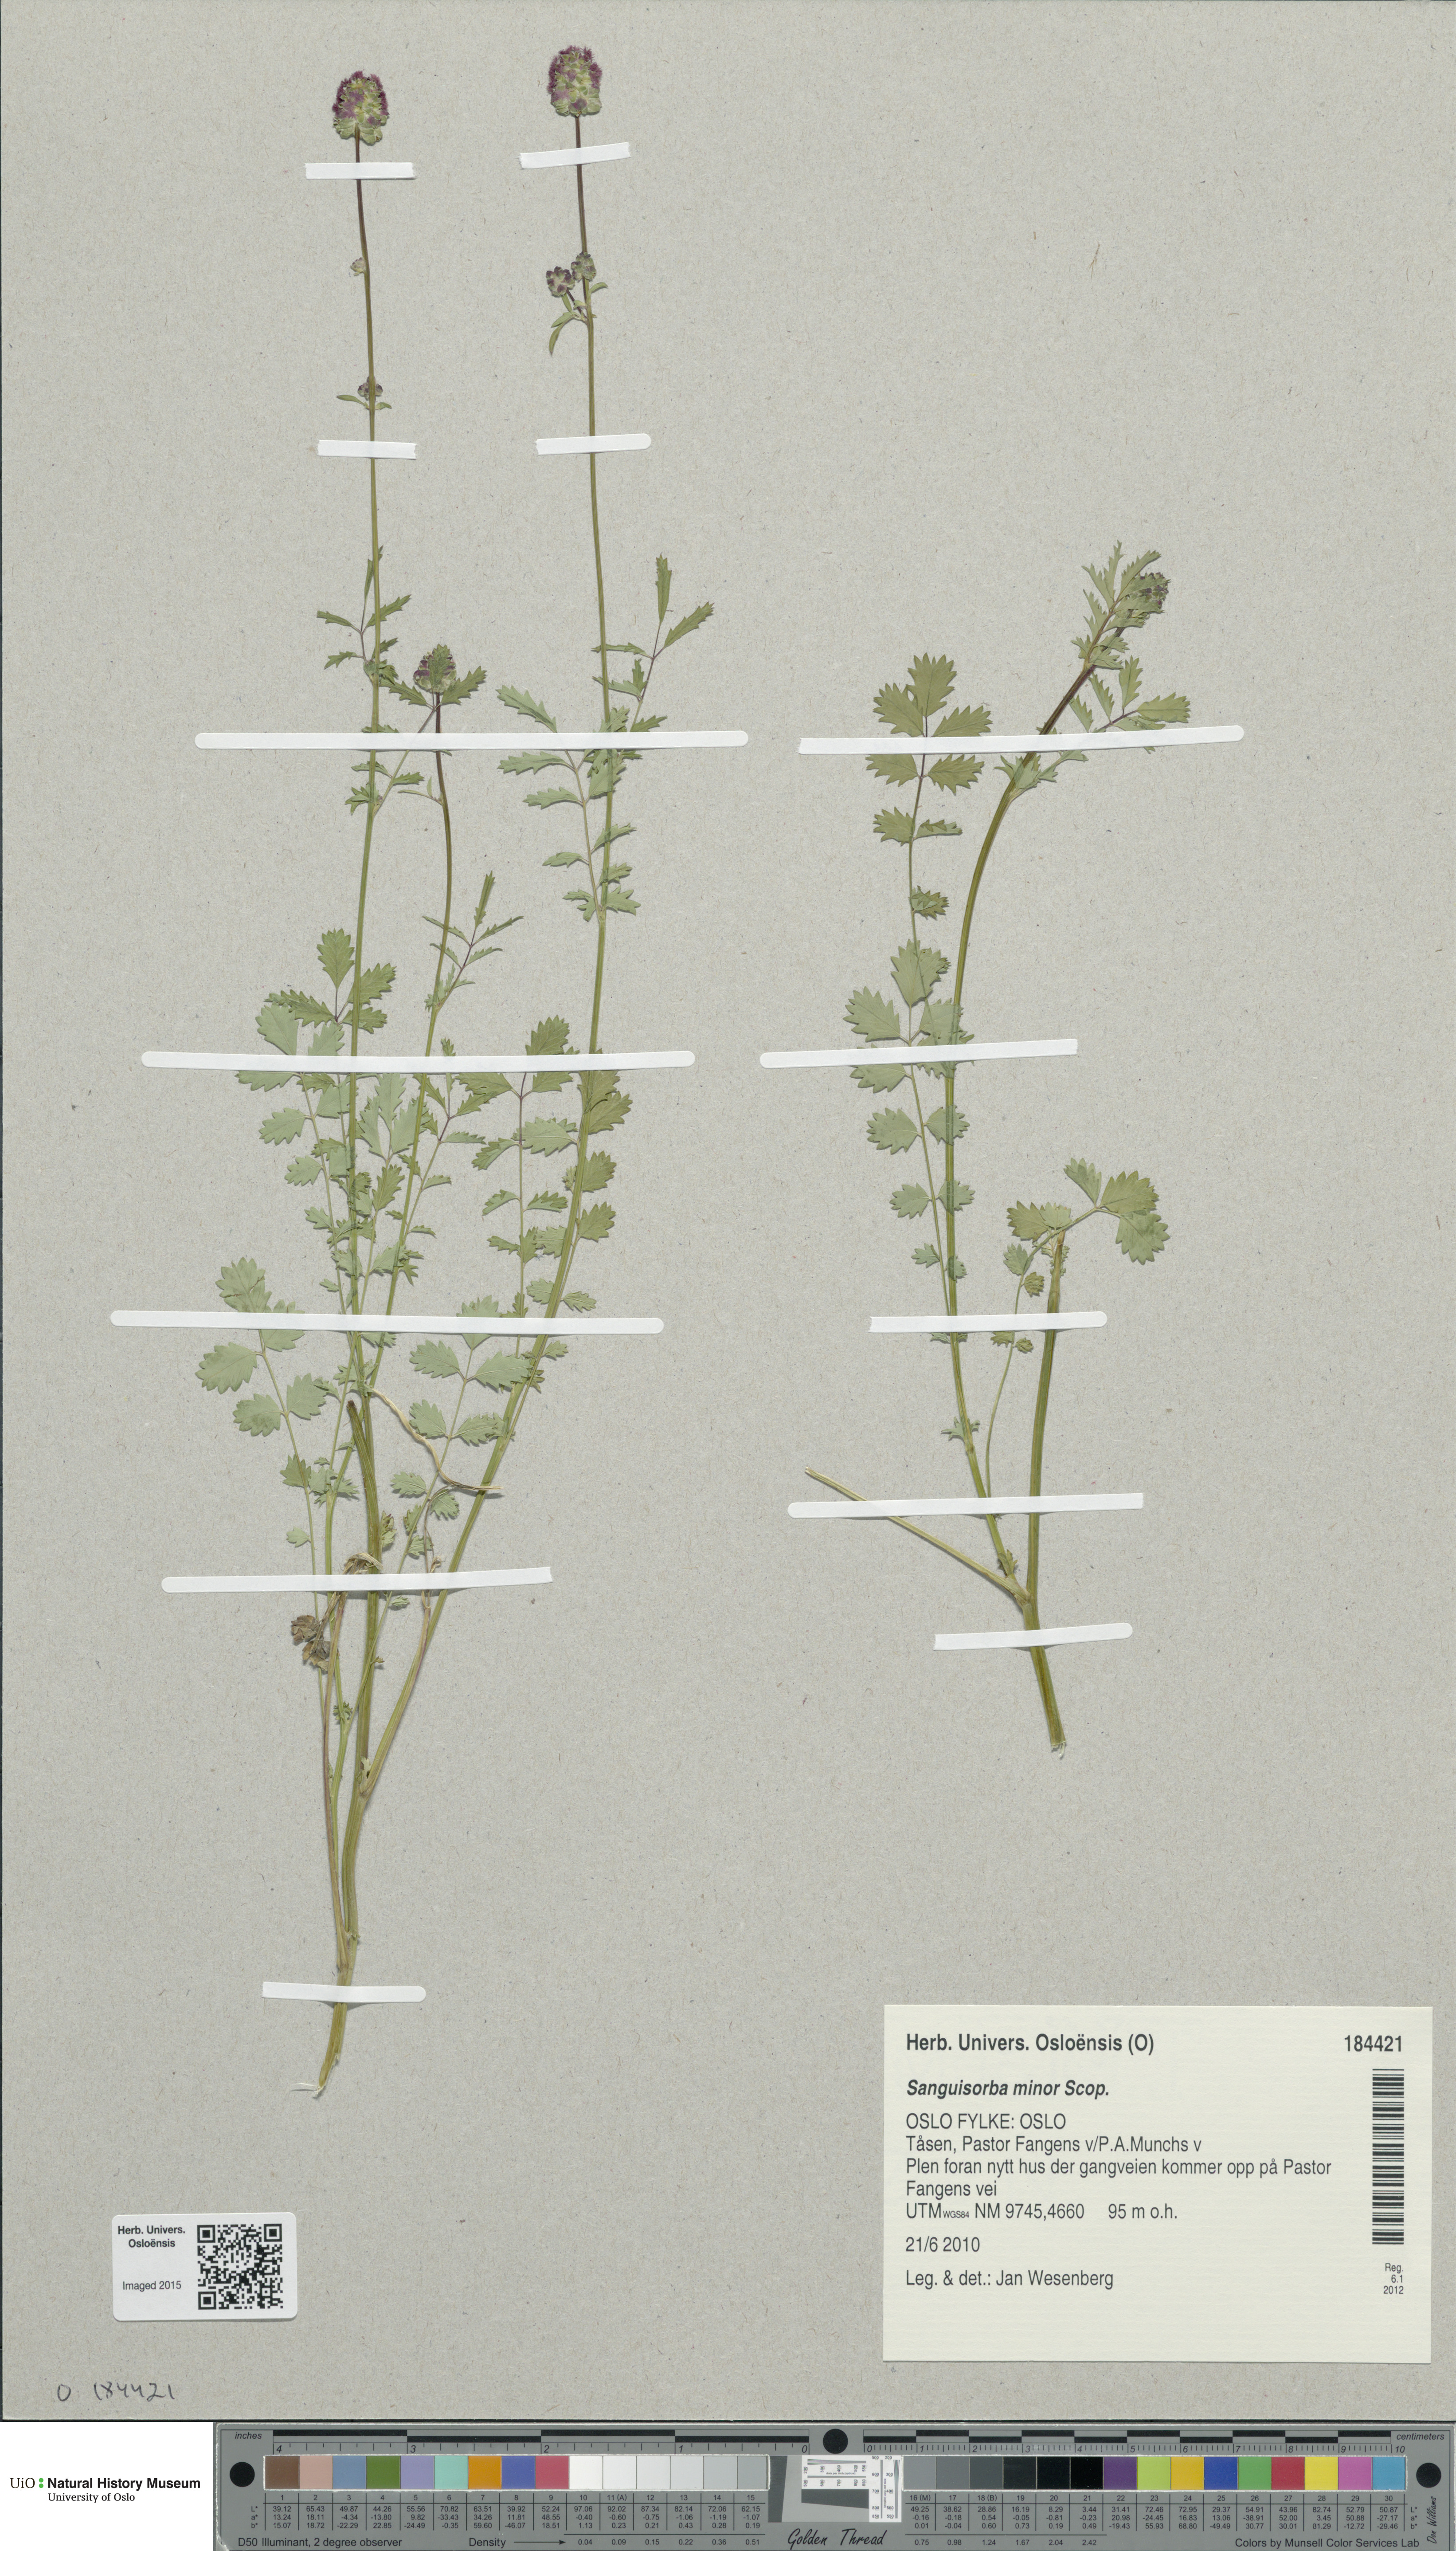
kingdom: Plantae
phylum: Tracheophyta
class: Magnoliopsida
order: Rosales
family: Rosaceae
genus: Poterium
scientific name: Poterium sanguisorba
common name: Salad burnet
